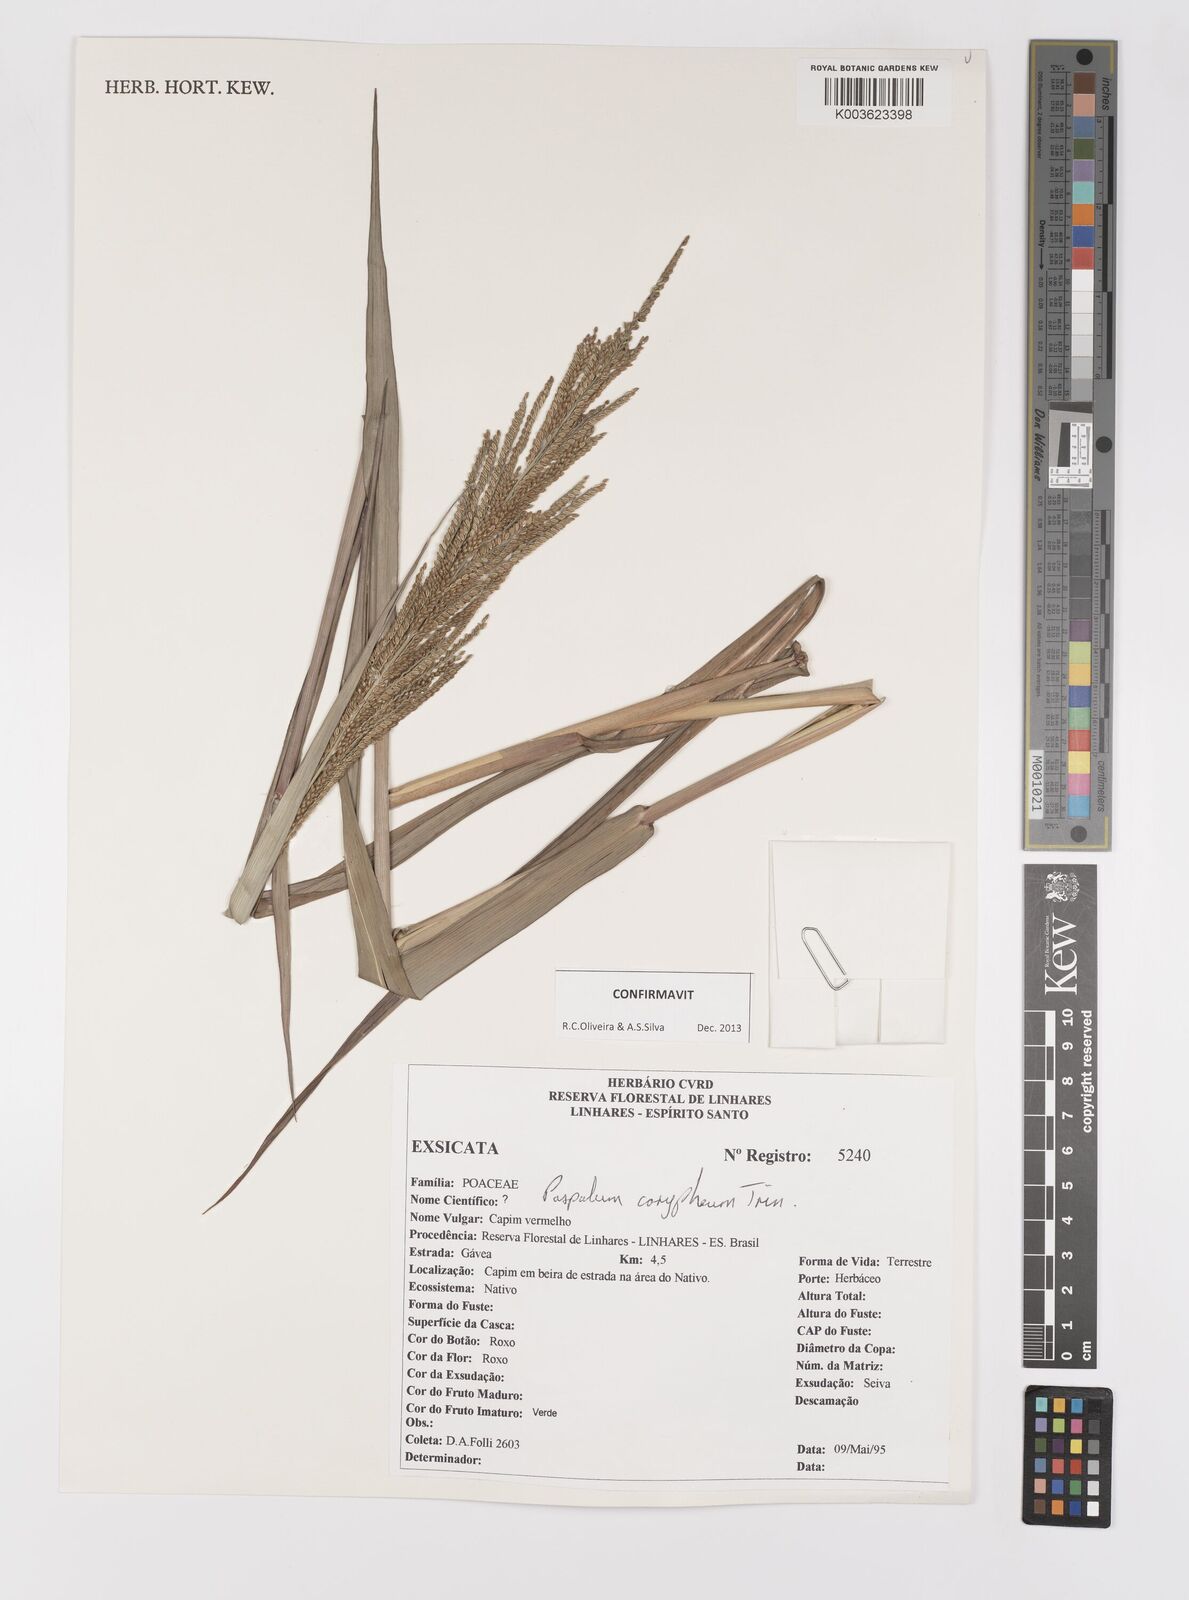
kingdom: Plantae
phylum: Tracheophyta
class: Liliopsida
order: Poales
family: Poaceae
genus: Paspalum
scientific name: Paspalum coryphaeum
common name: Emperor crowngrass
